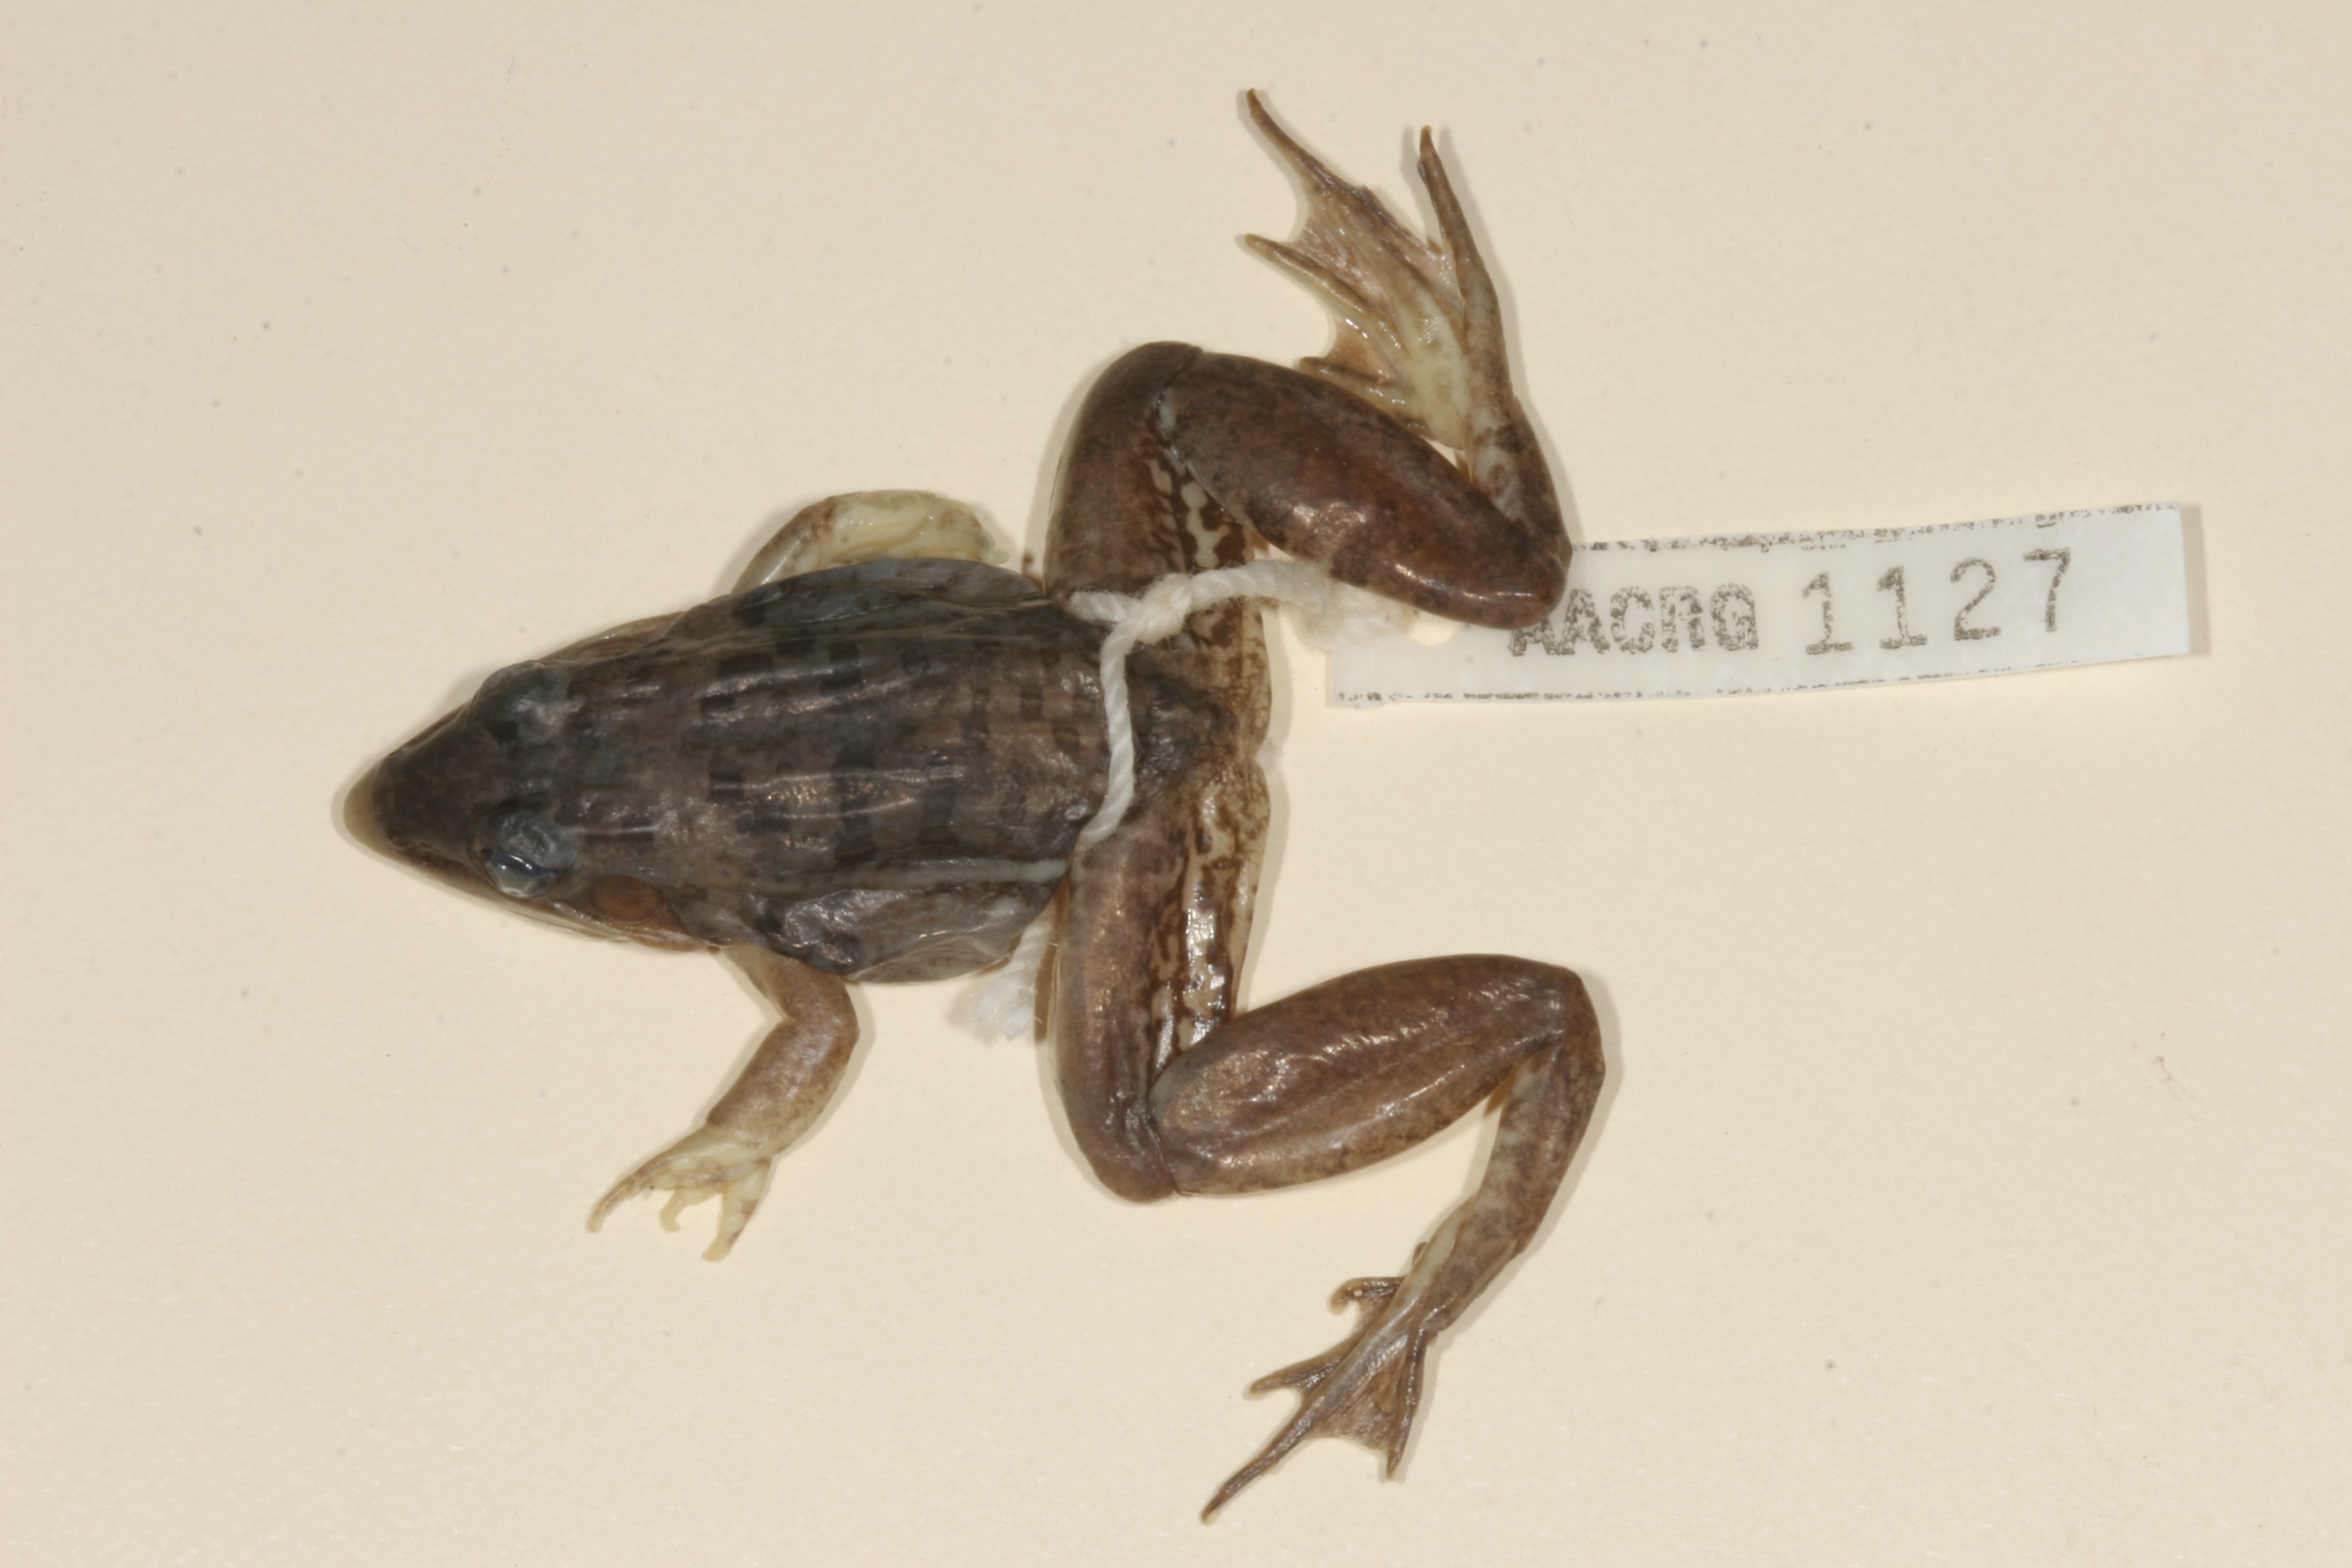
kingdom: Animalia
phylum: Chordata
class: Amphibia
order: Anura
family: Ptychadenidae
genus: Ptychadena
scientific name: Ptychadena mapacha
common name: Mapach ridged frog
